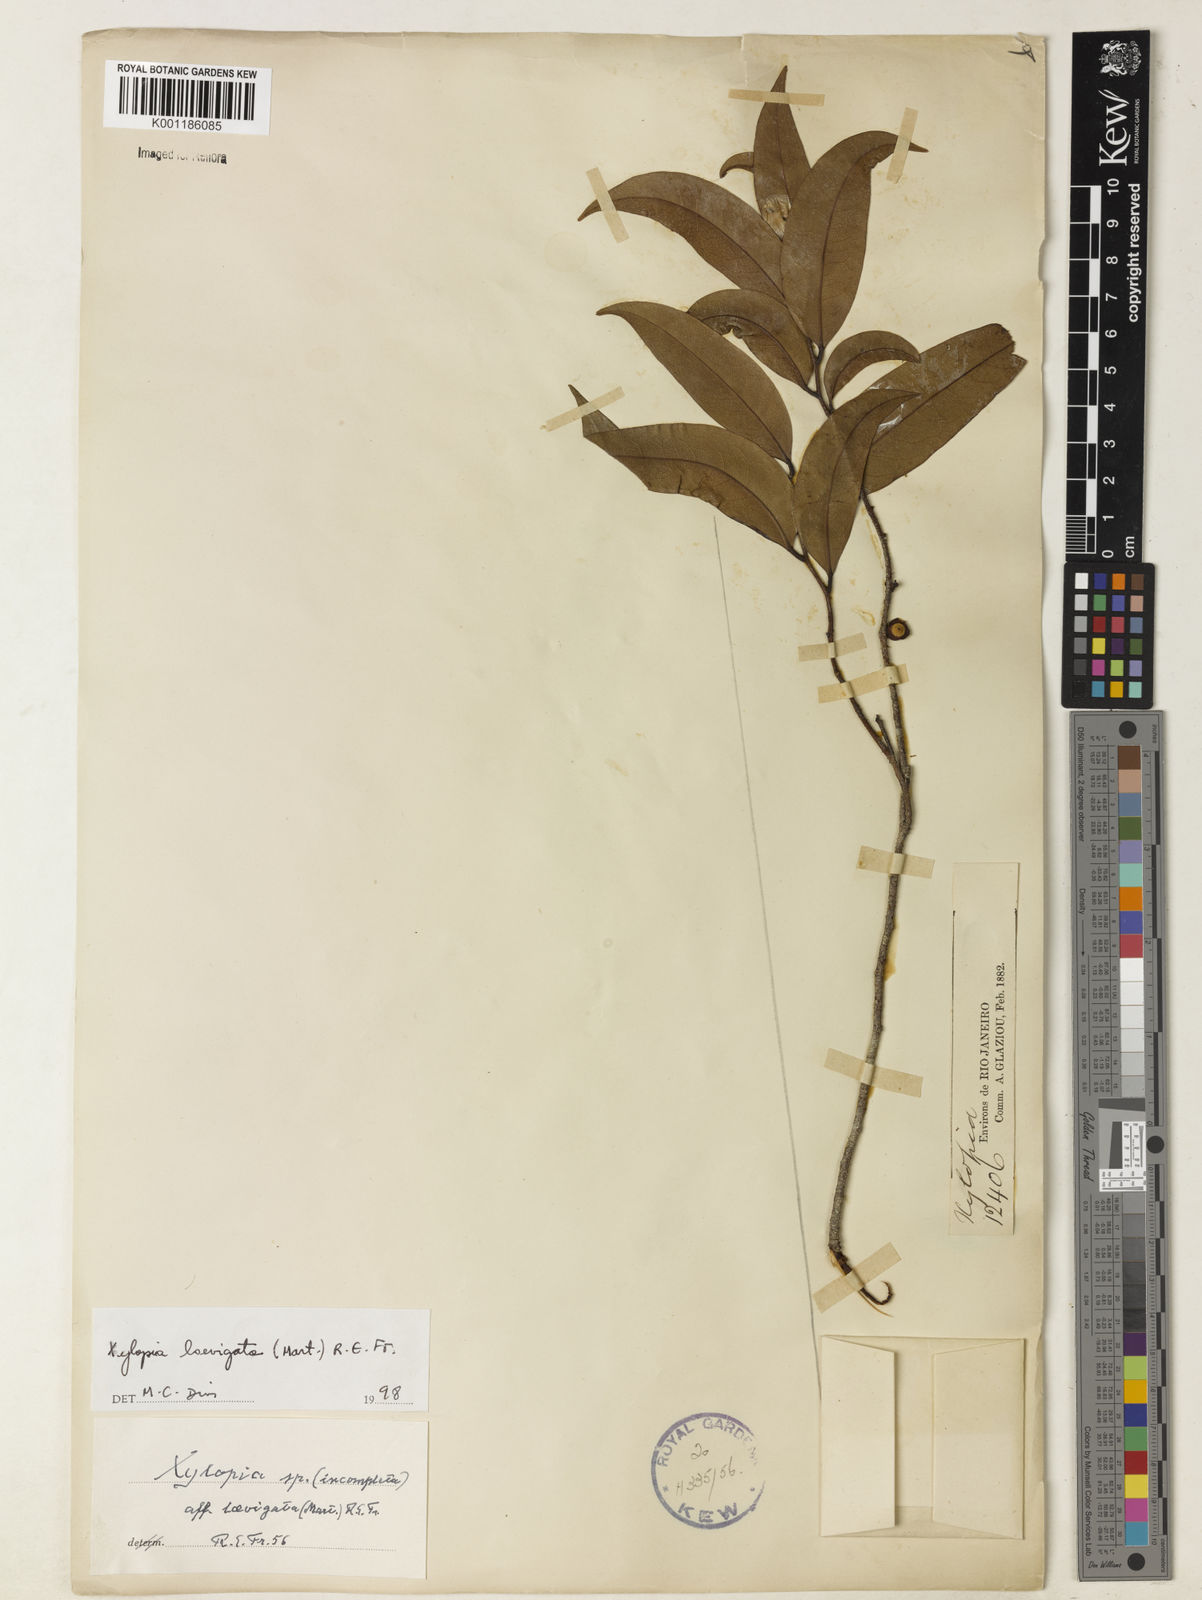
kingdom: Plantae
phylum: Tracheophyta
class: Magnoliopsida
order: Magnoliales
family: Annonaceae
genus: Xylopia
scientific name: Xylopia laevigata
